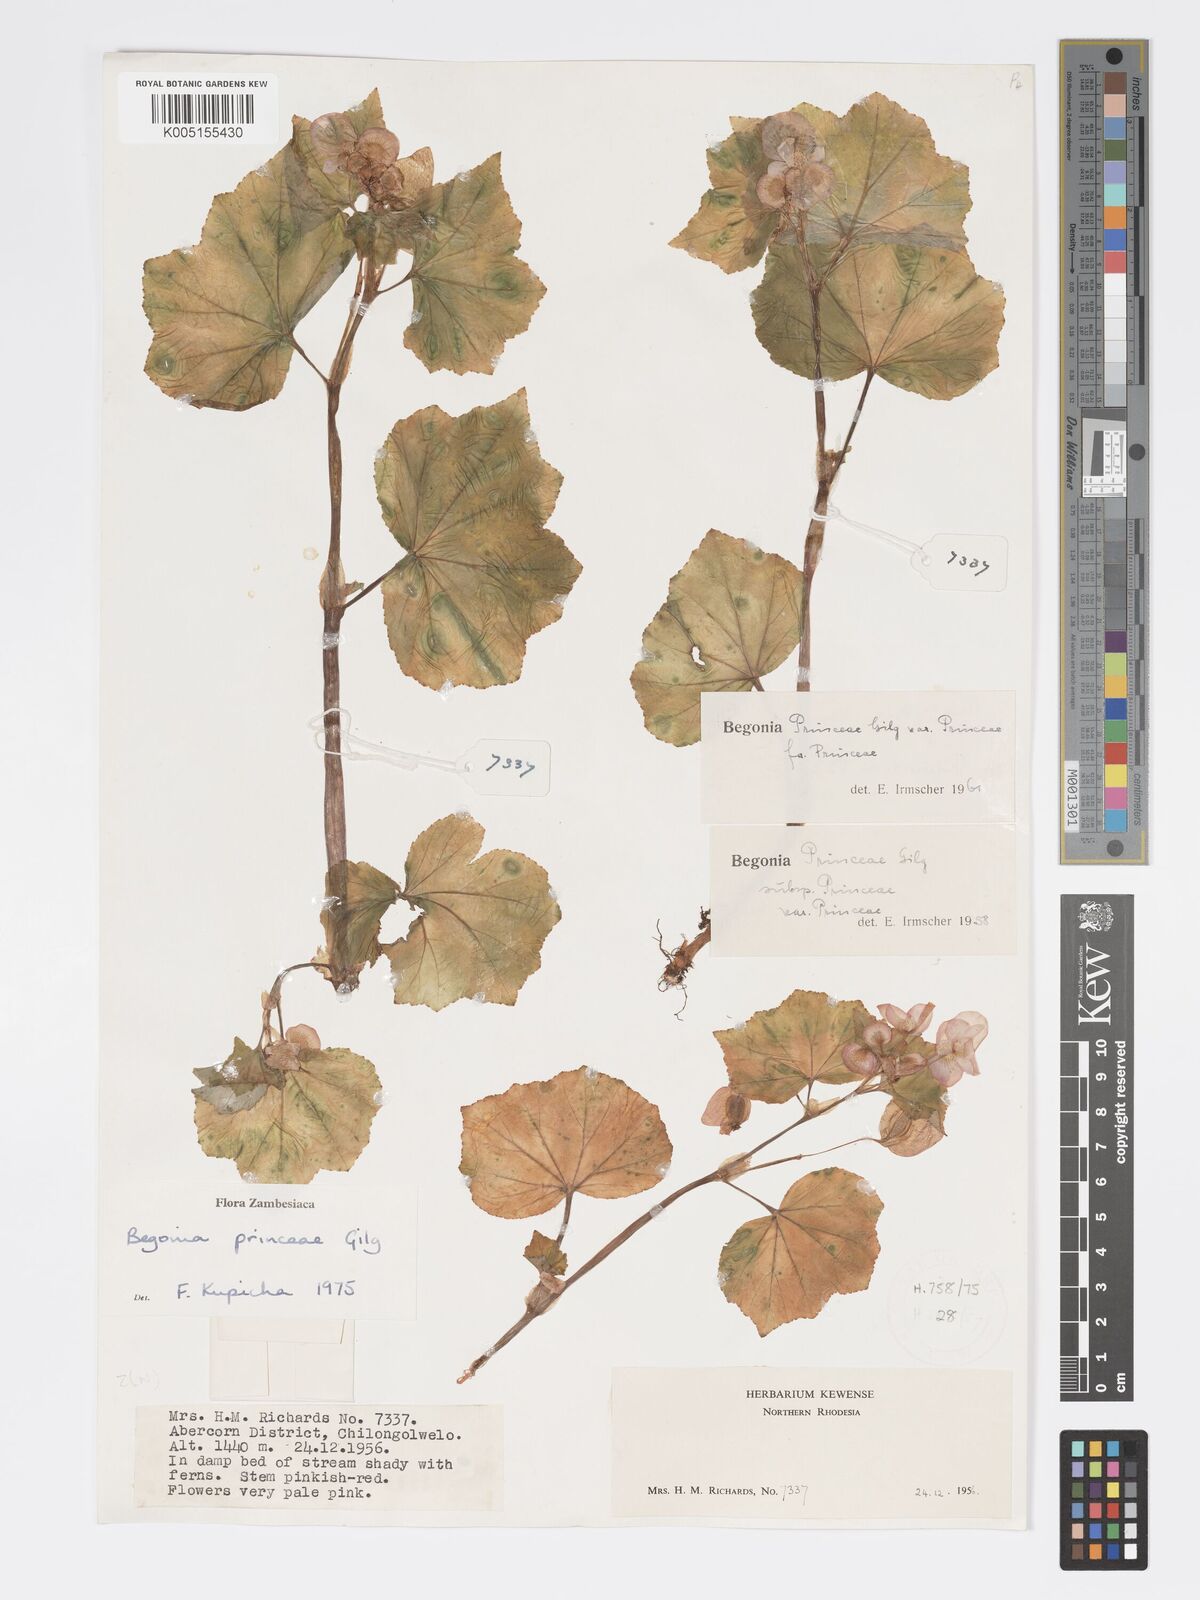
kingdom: Plantae
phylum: Tracheophyta
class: Magnoliopsida
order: Cucurbitales
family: Begoniaceae
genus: Begonia
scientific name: Begonia princeae
